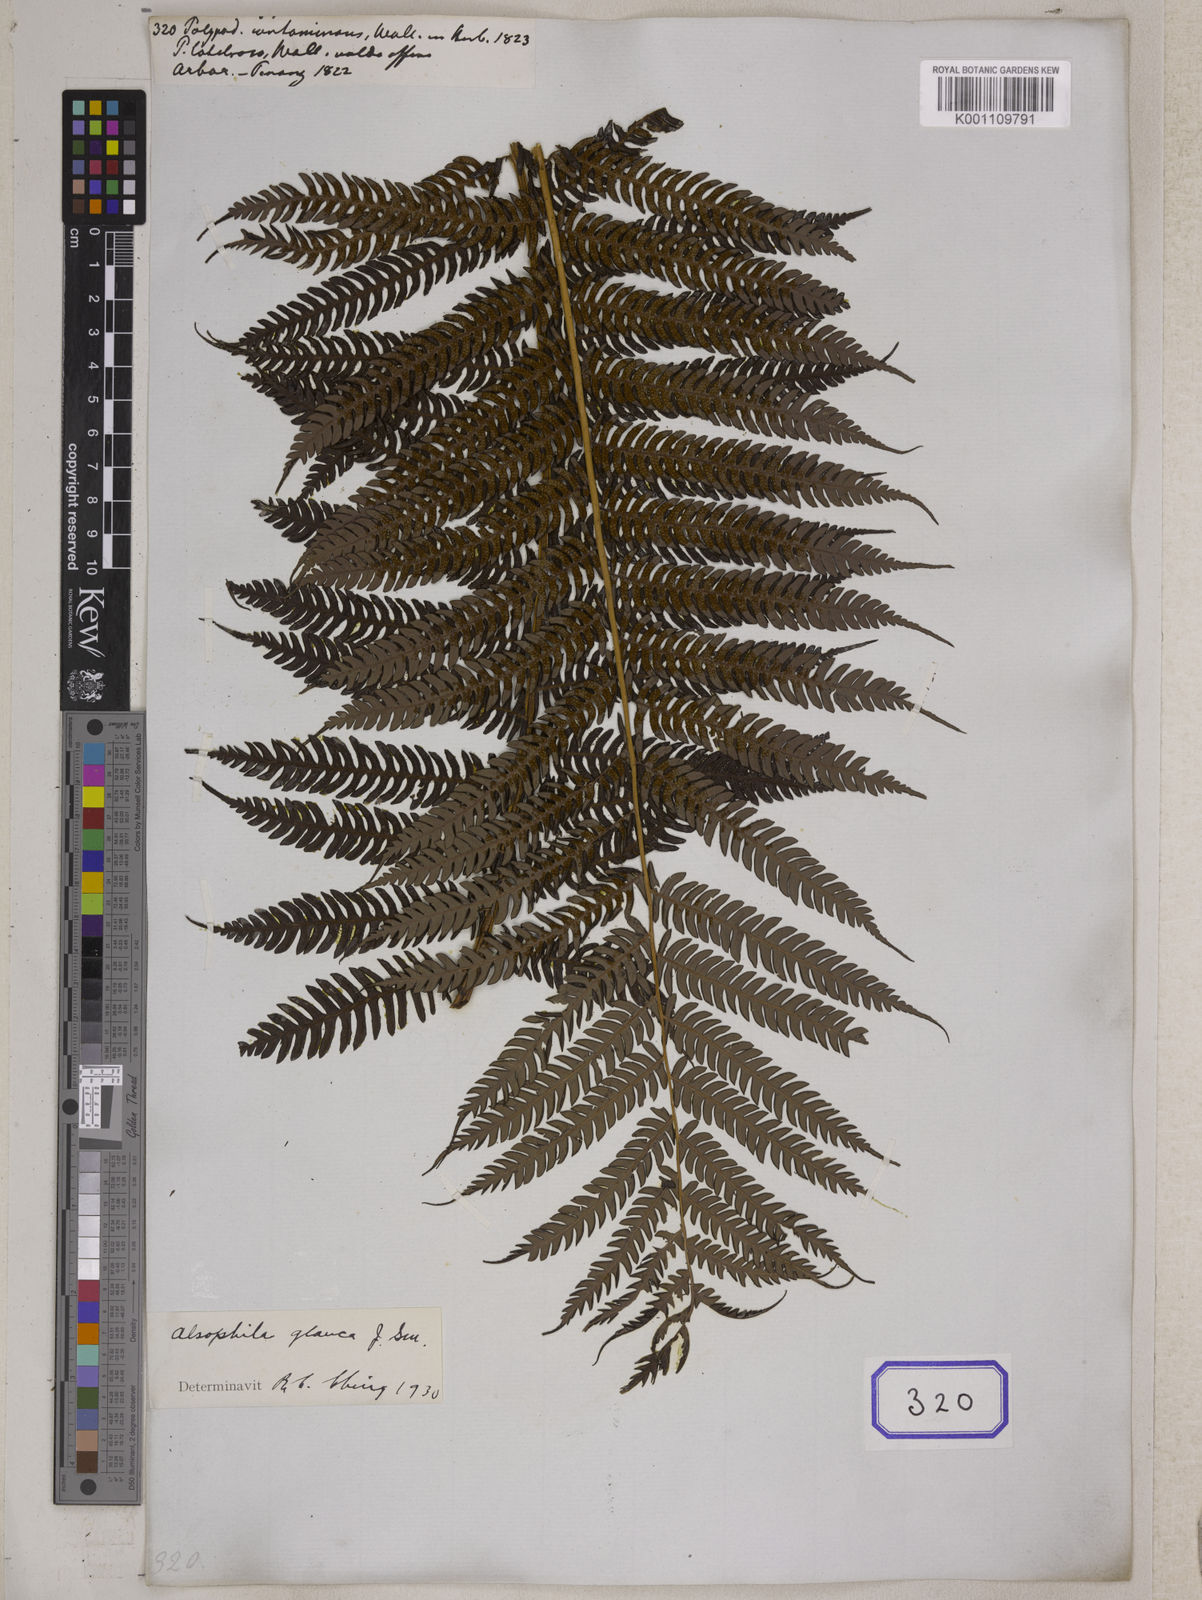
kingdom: Plantae
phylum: Tracheophyta
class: Polypodiopsida
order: Cyatheales
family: Cyatheaceae
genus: Sphaeropteris
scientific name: Sphaeropteris glauca
